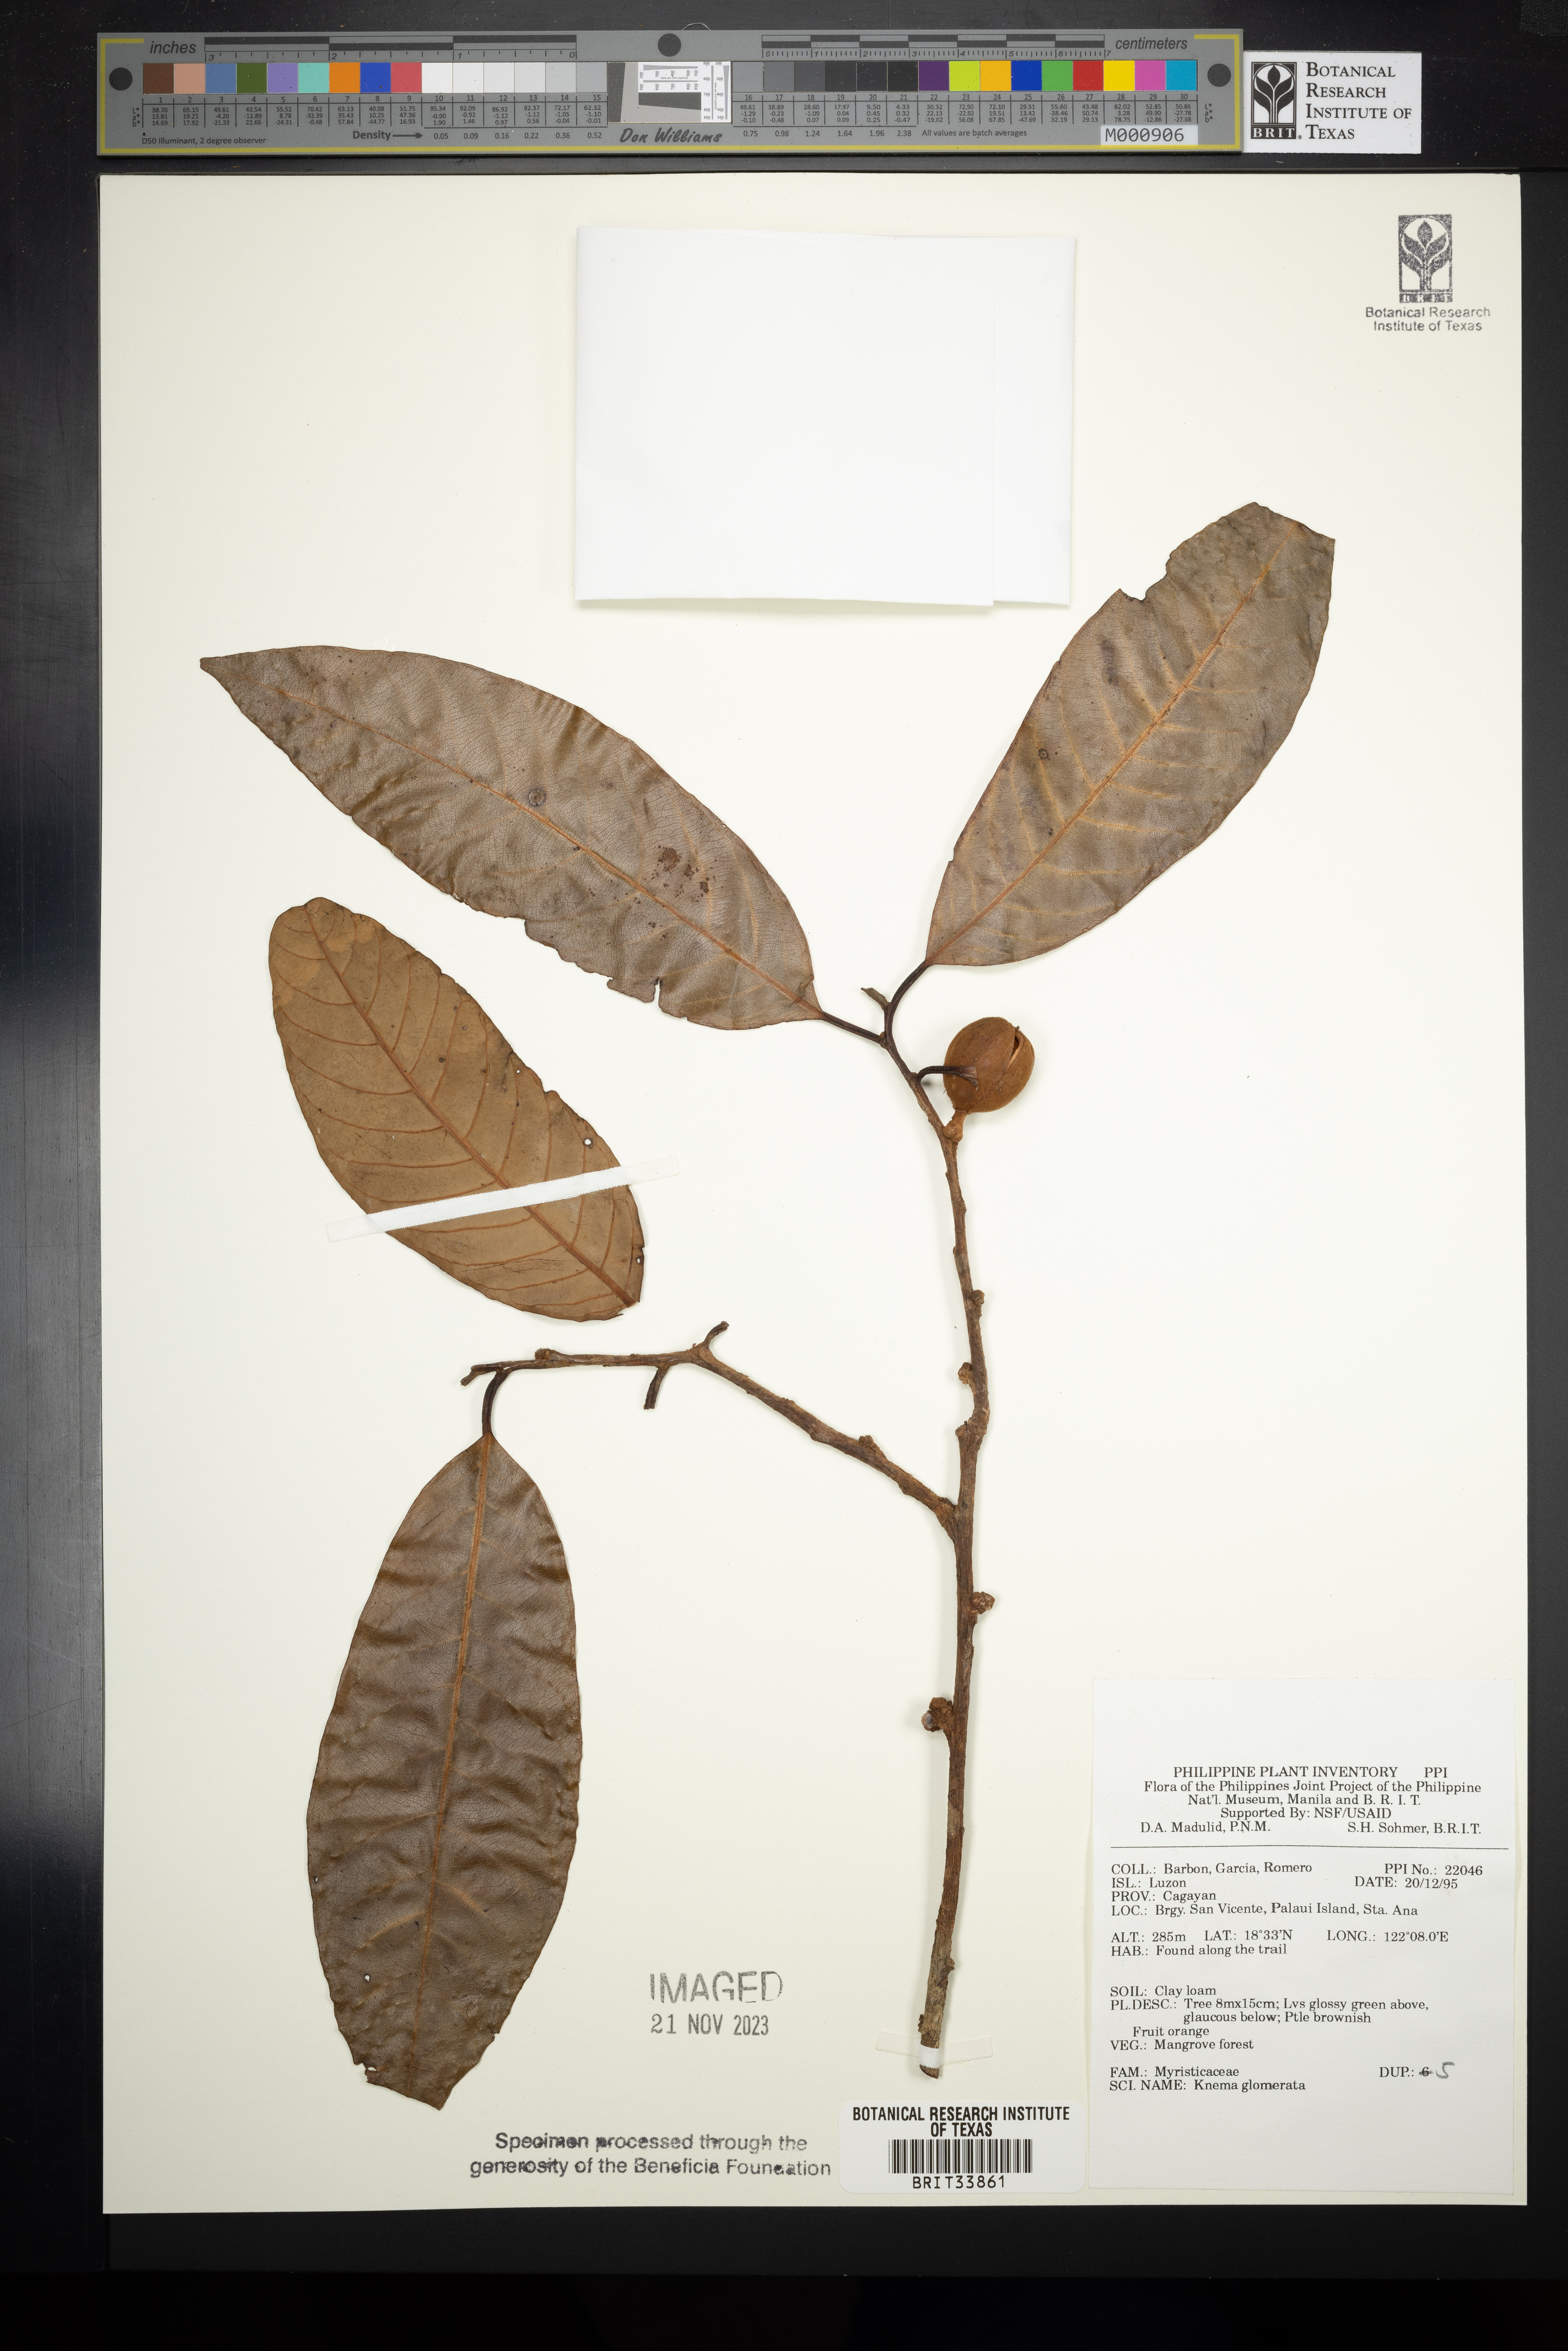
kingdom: Plantae
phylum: Tracheophyta
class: Magnoliopsida
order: Magnoliales
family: Myristicaceae
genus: Knema
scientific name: Knema glomerata
